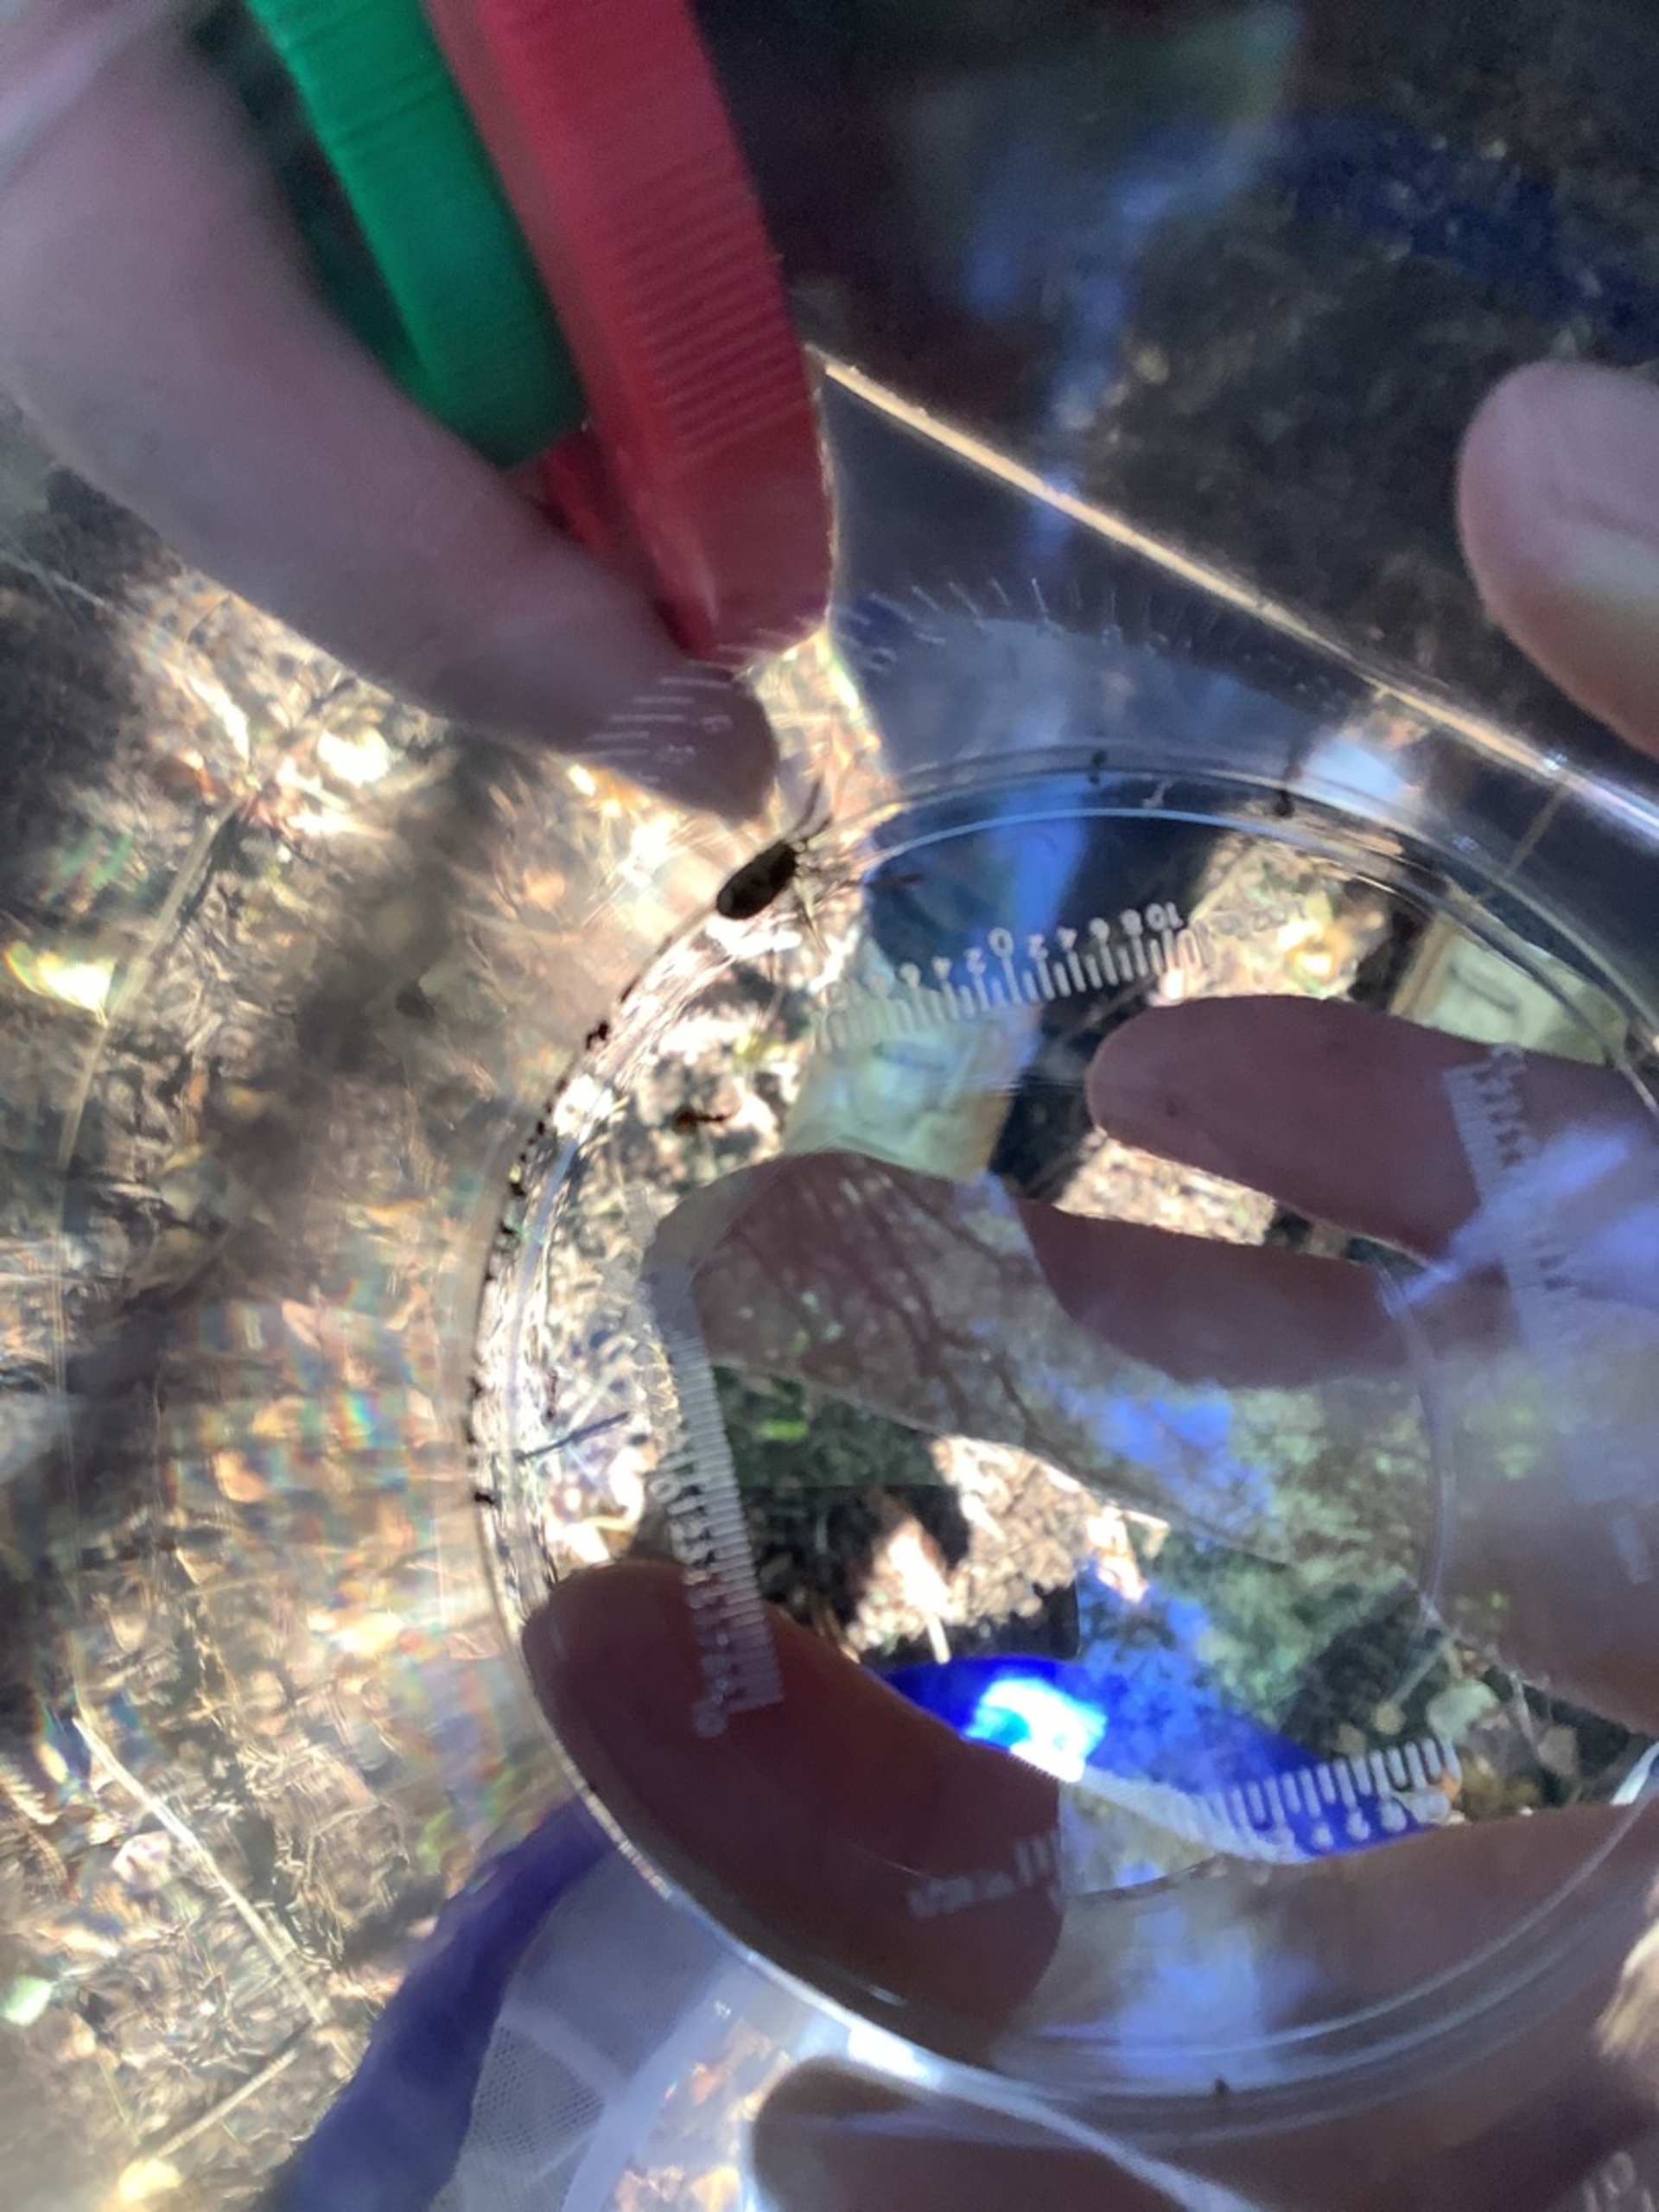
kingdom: Animalia
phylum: Arthropoda
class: Arachnida
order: Opiliones
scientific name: Opiliones
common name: Mejere
